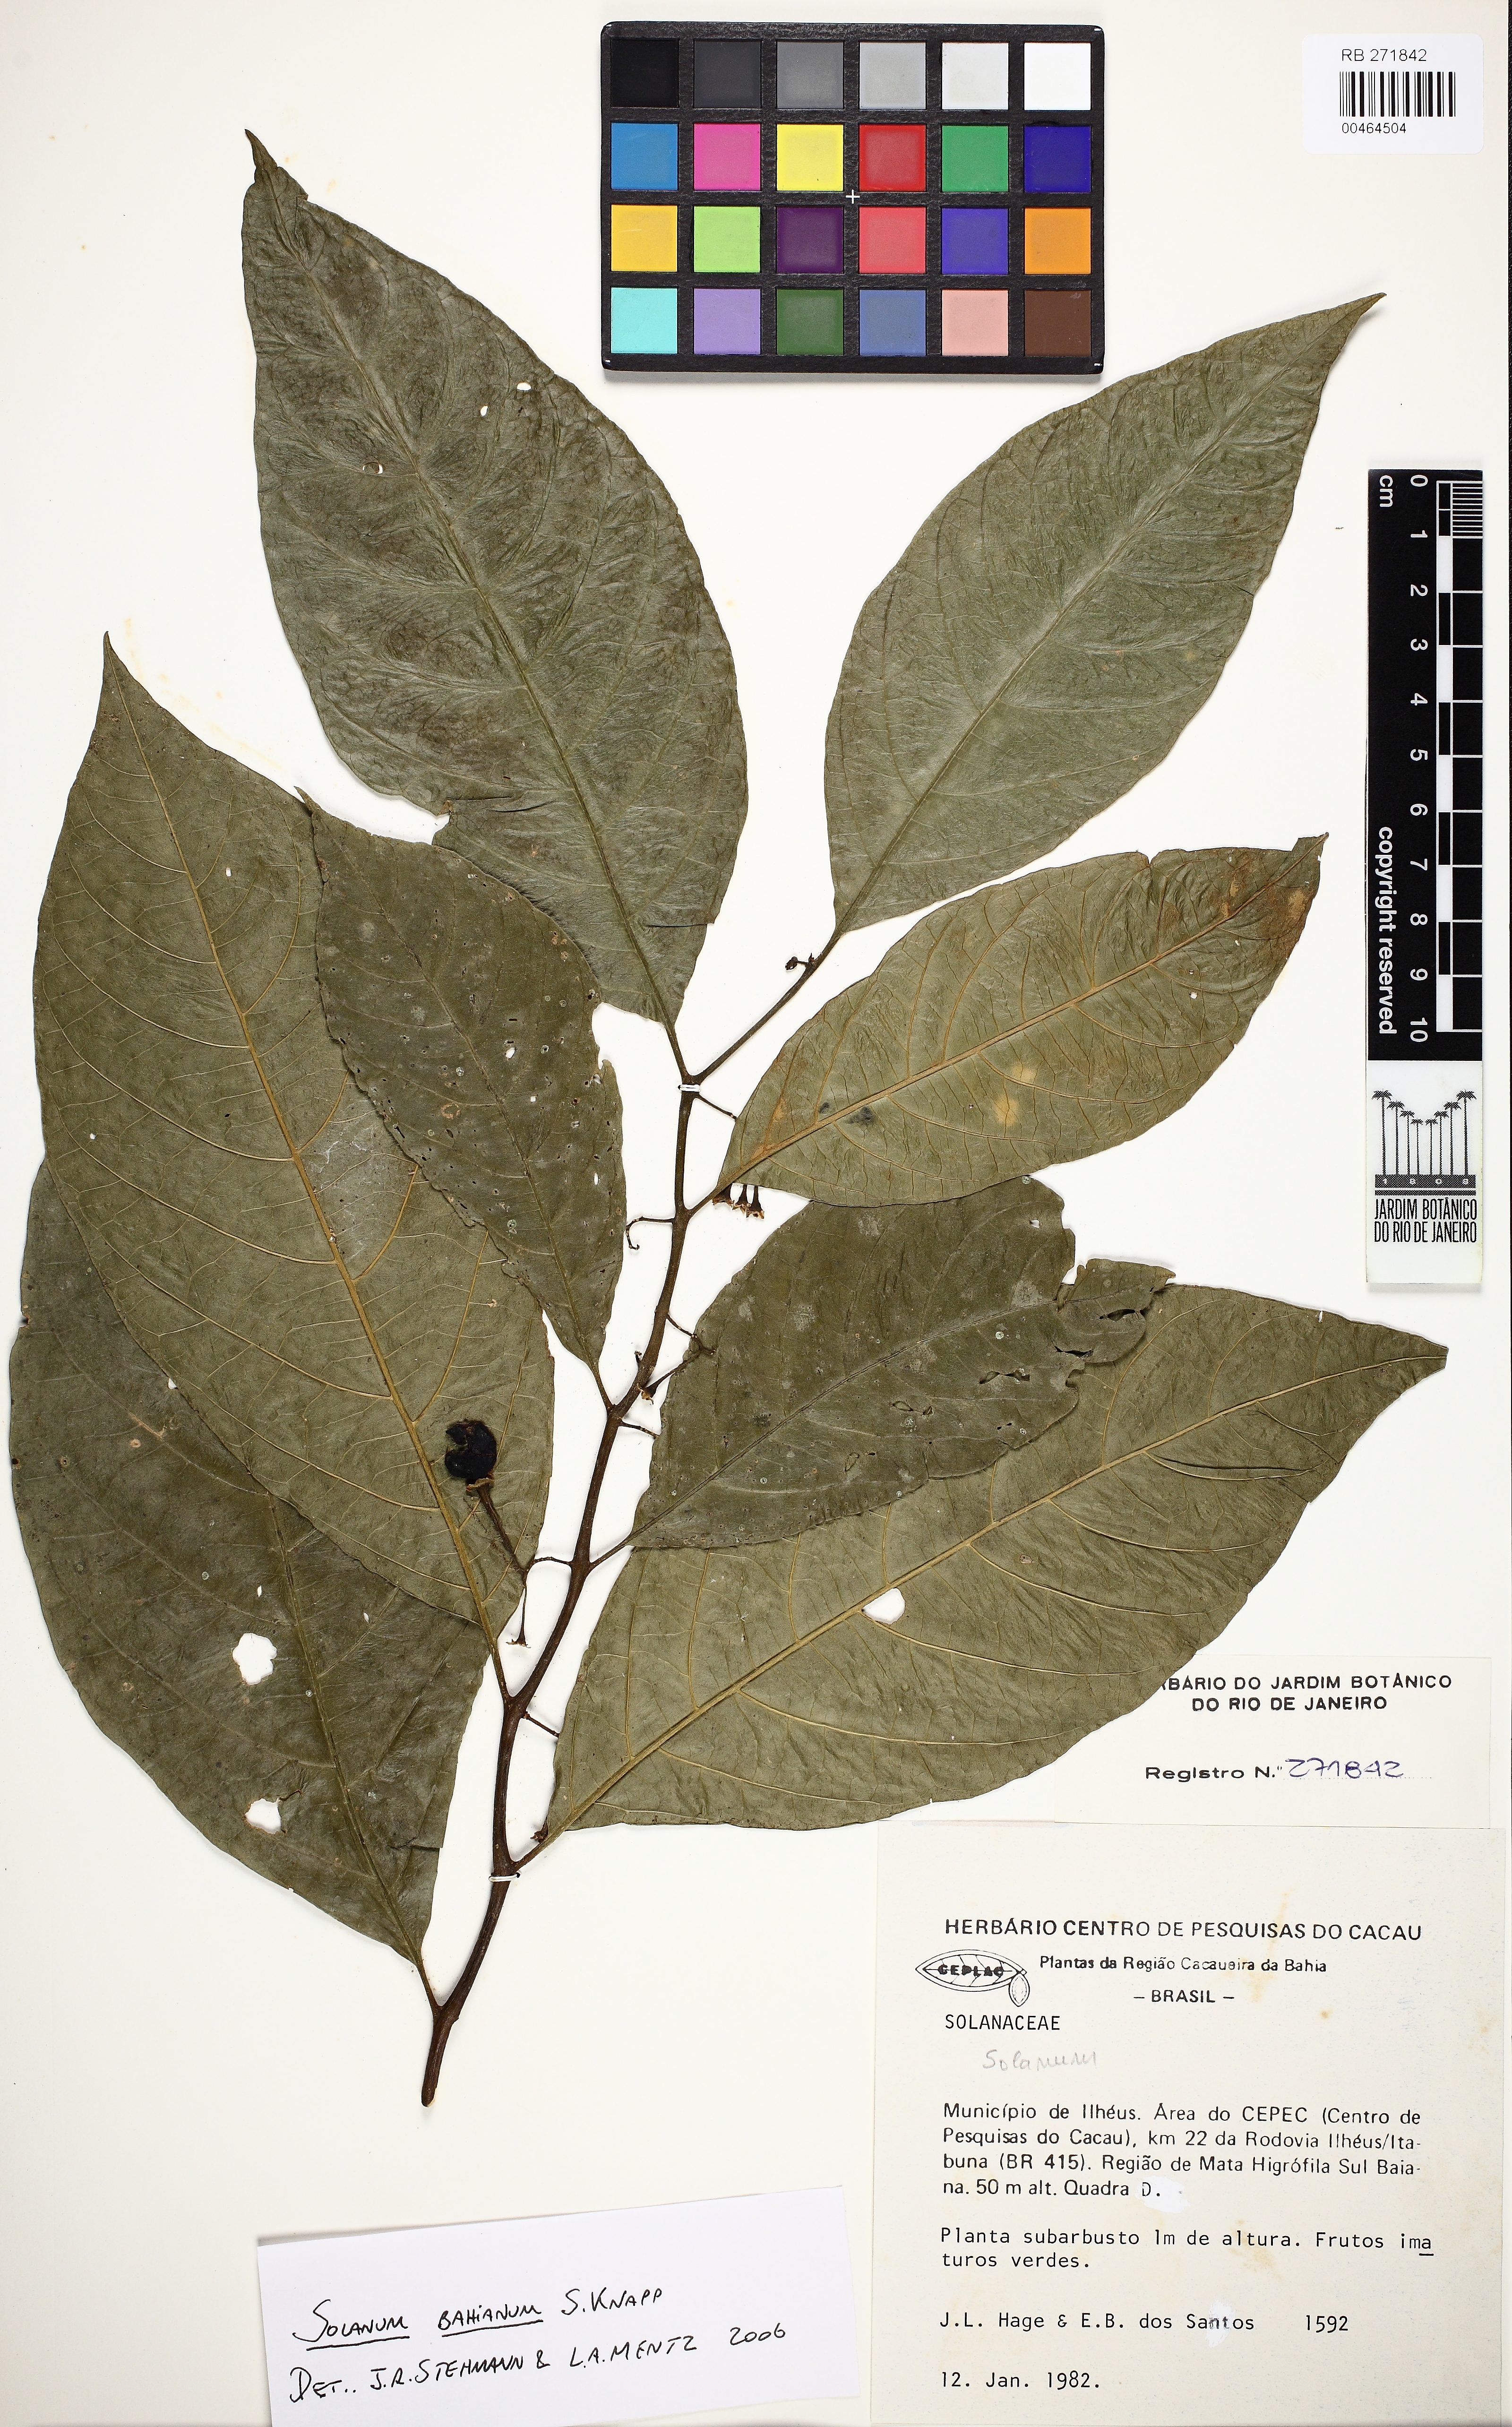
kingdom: Plantae
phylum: Tracheophyta
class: Magnoliopsida
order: Solanales
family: Solanaceae
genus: Solanum
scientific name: Solanum bahianum
